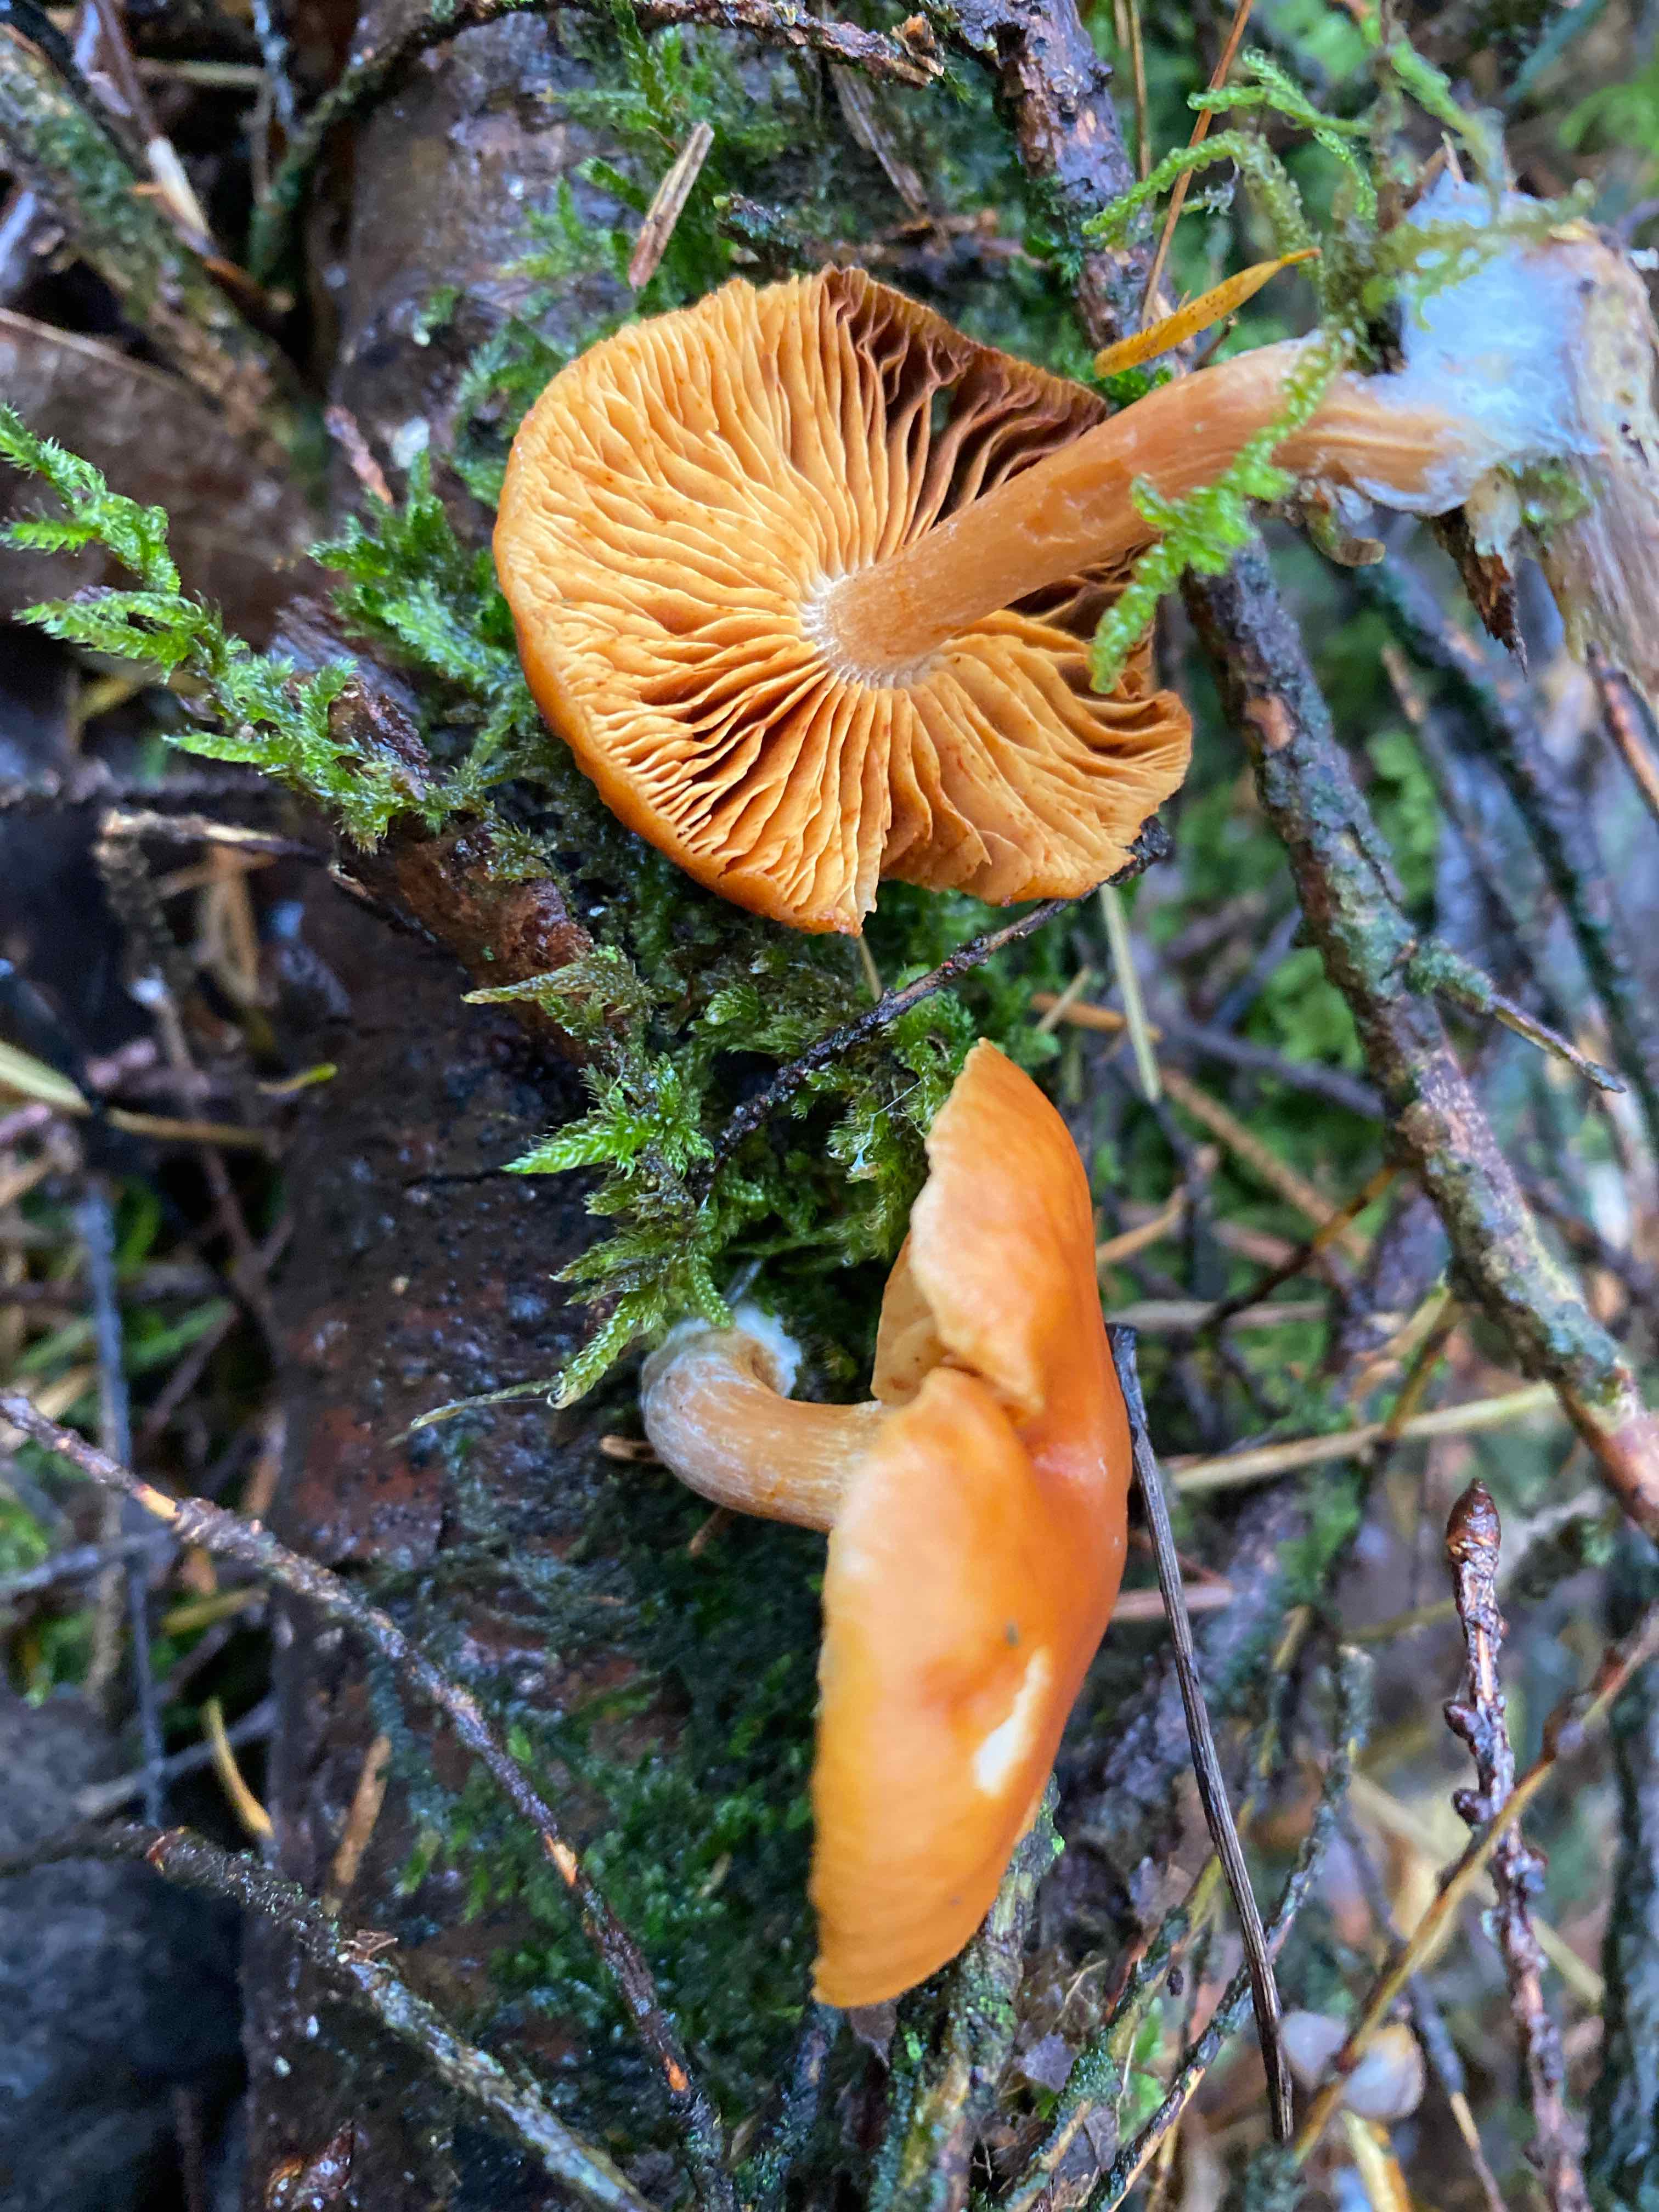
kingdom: Fungi
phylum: Basidiomycota
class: Agaricomycetes
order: Agaricales
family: Hymenogastraceae
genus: Gymnopilus
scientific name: Gymnopilus penetrans
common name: plettet flammehat
